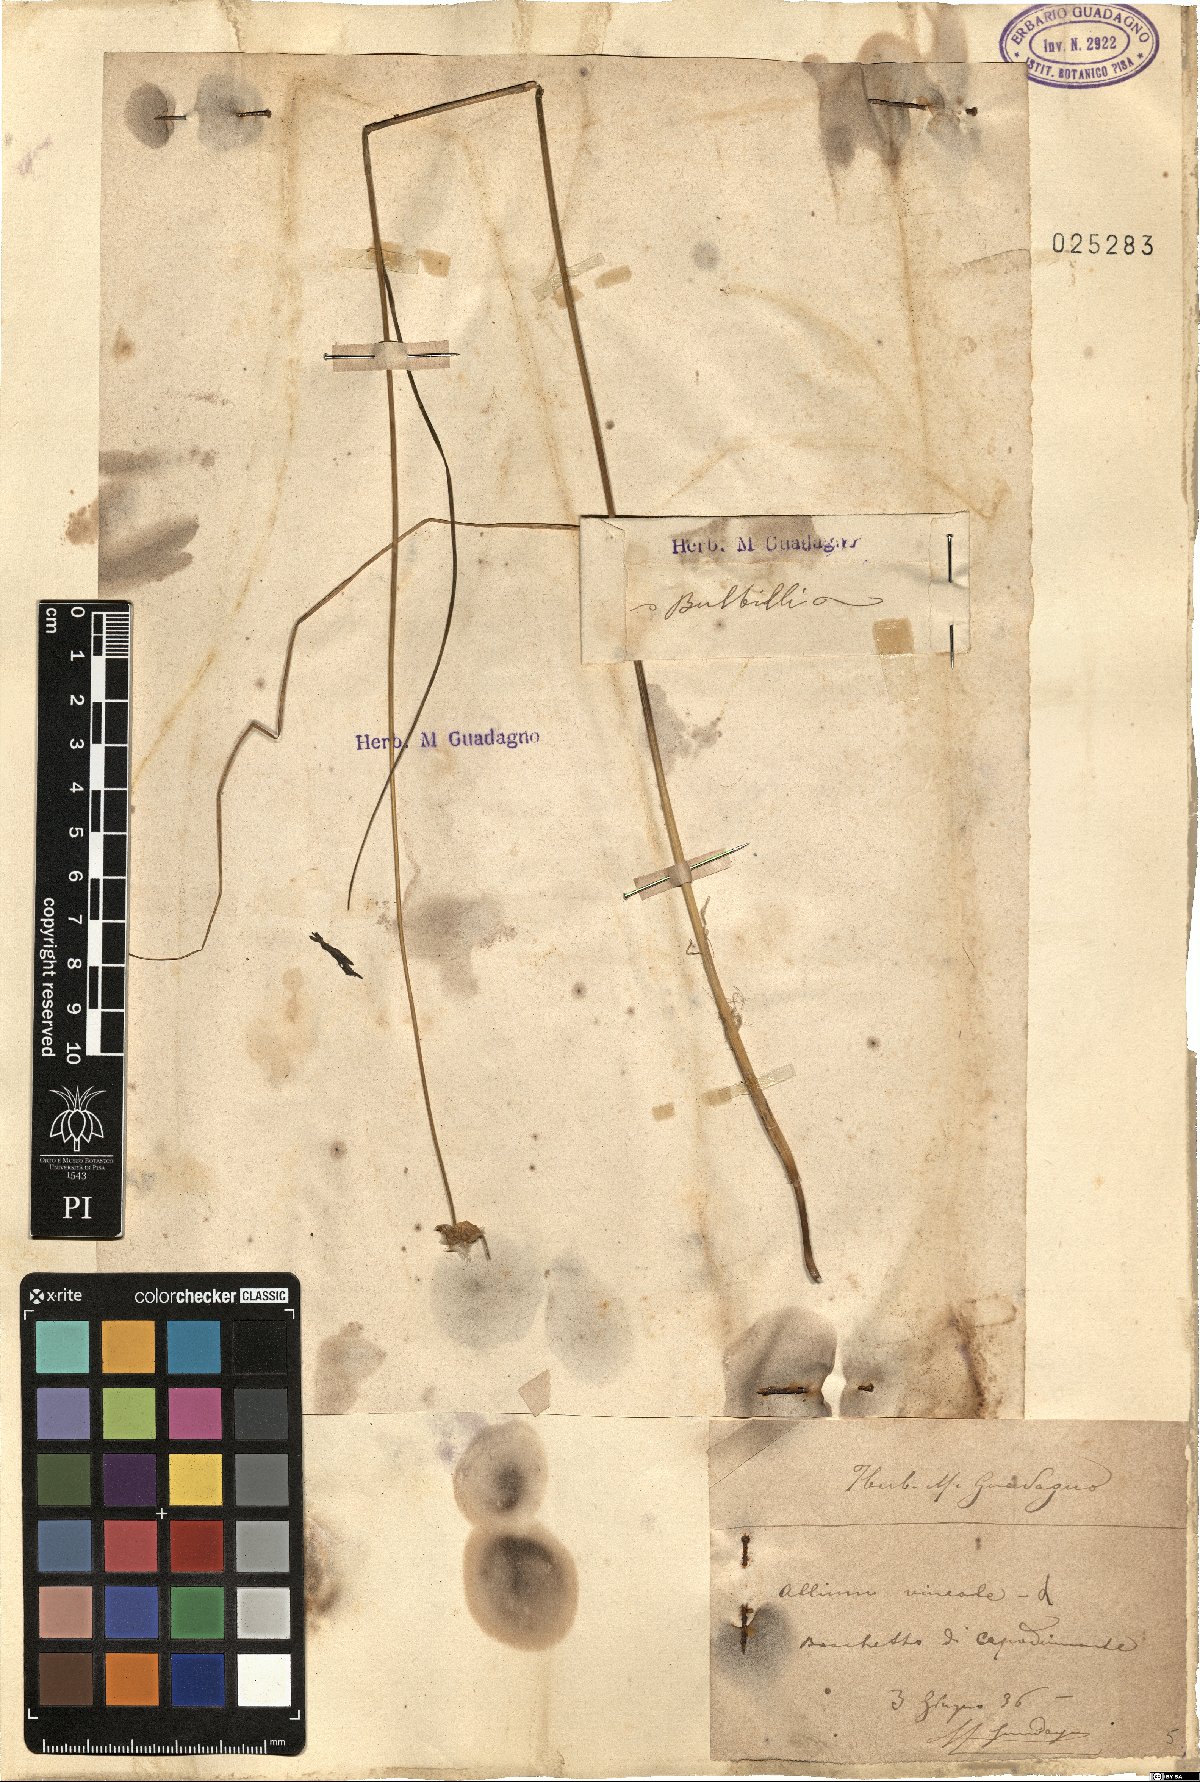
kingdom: Plantae
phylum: Tracheophyta
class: Liliopsida
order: Asparagales
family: Amaryllidaceae
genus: Allium
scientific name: Allium vineale
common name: Crow garlic
